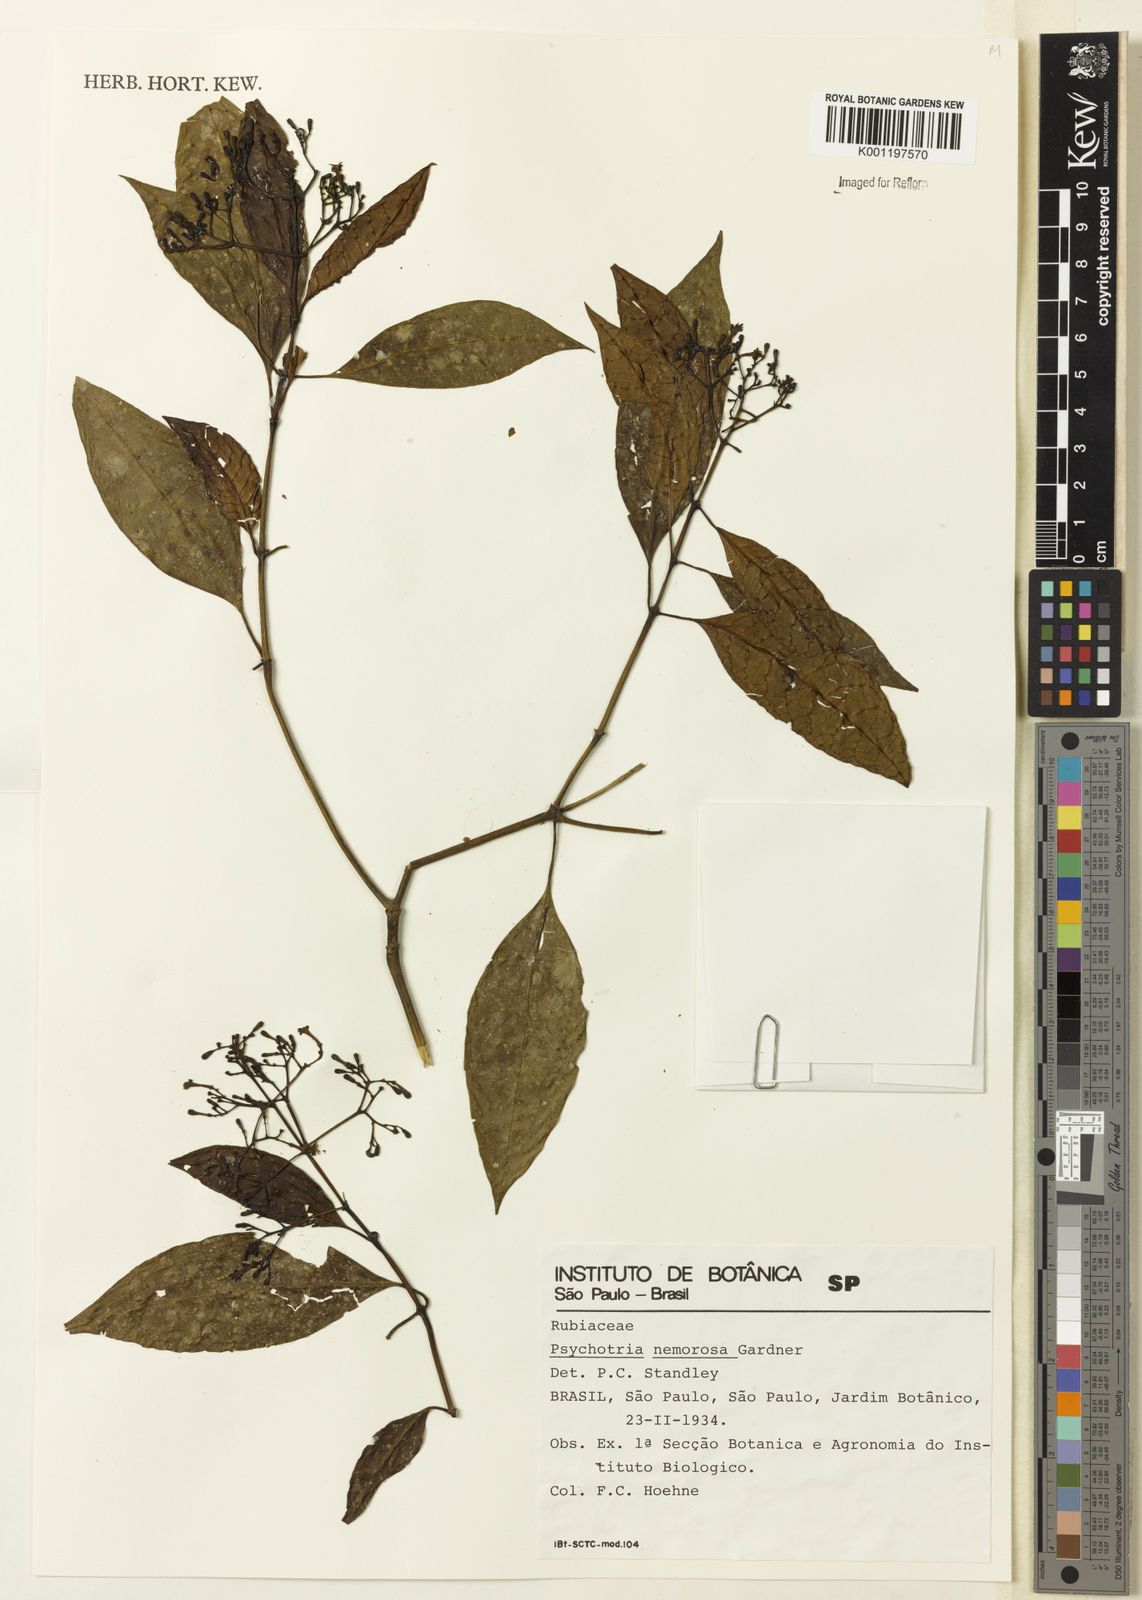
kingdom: Plantae
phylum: Tracheophyta
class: Magnoliopsida
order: Gentianales
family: Rubiaceae
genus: Psychotria
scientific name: Psychotria nemorosa
